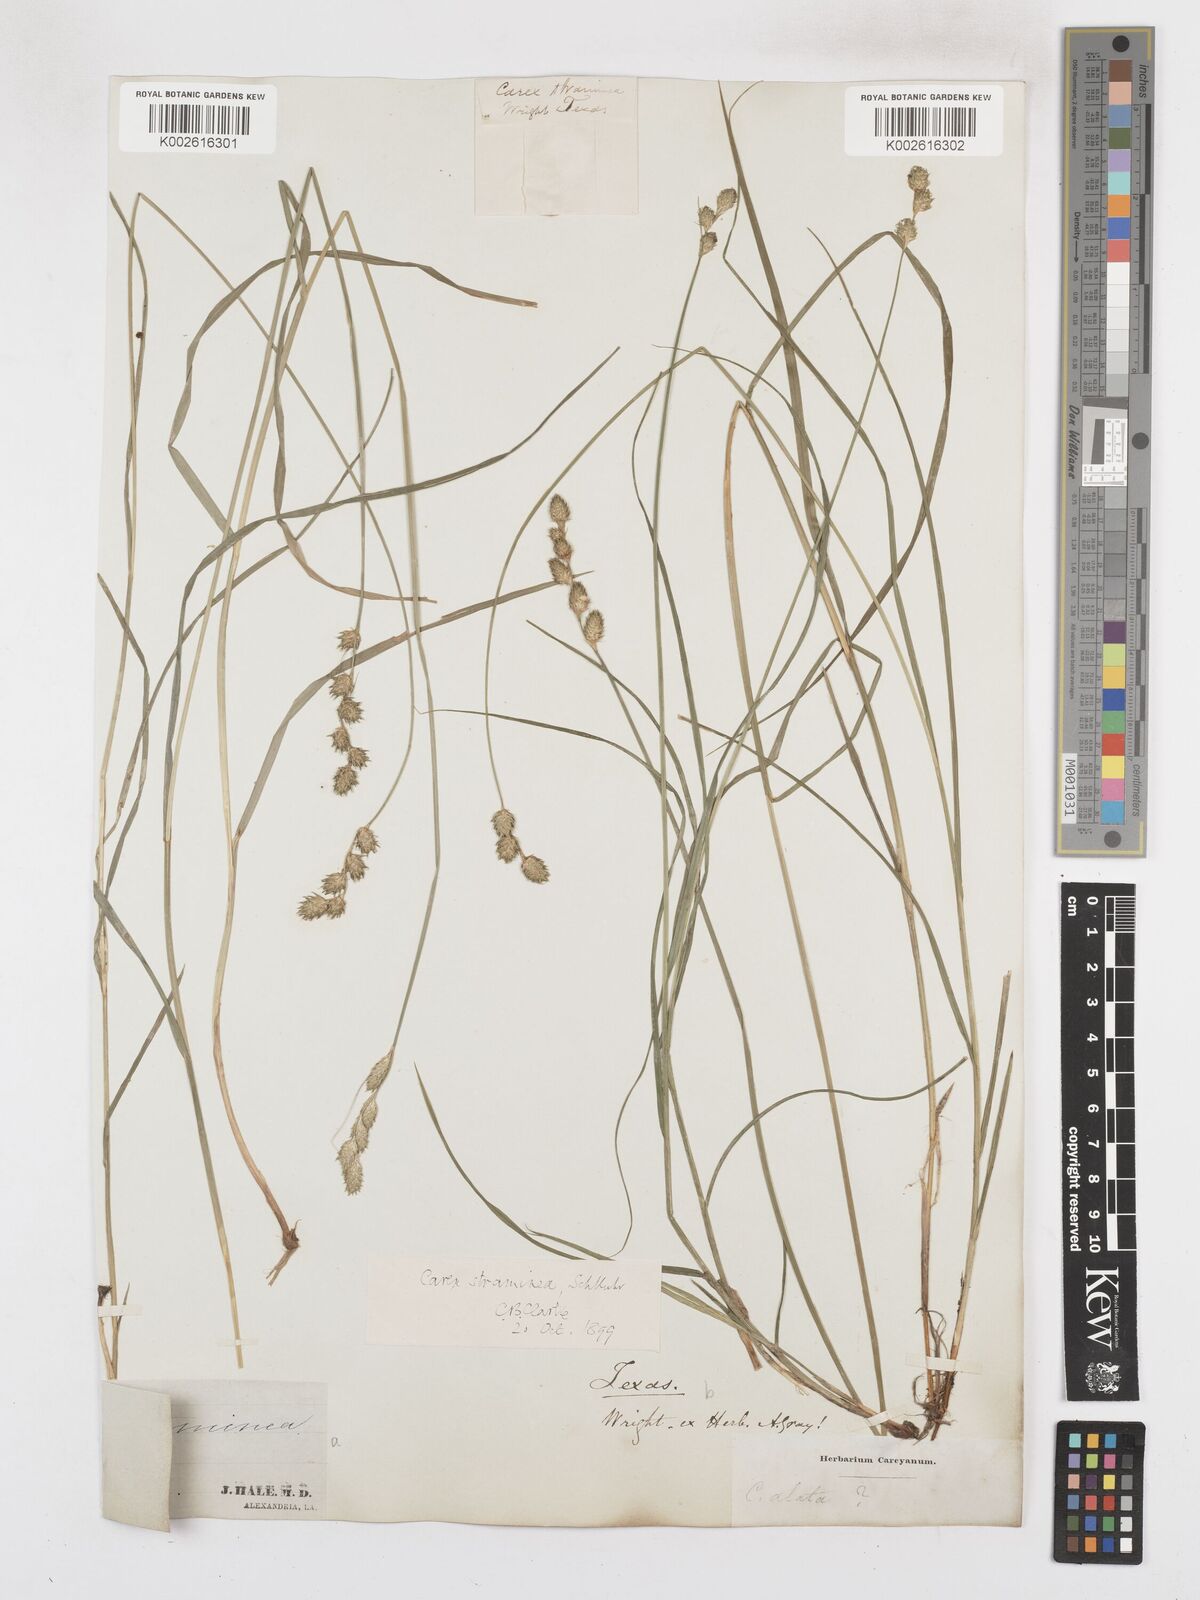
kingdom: Plantae
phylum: Tracheophyta
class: Liliopsida
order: Poales
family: Cyperaceae
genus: Carex
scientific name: Carex albolutescens
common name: Freenish white sedge
